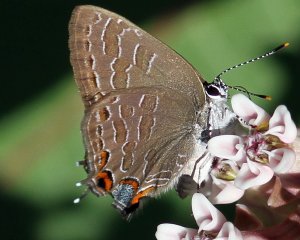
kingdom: Animalia
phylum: Arthropoda
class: Insecta
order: Lepidoptera
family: Lycaenidae
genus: Satyrium
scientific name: Satyrium liparops
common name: Striped Hairstreak
